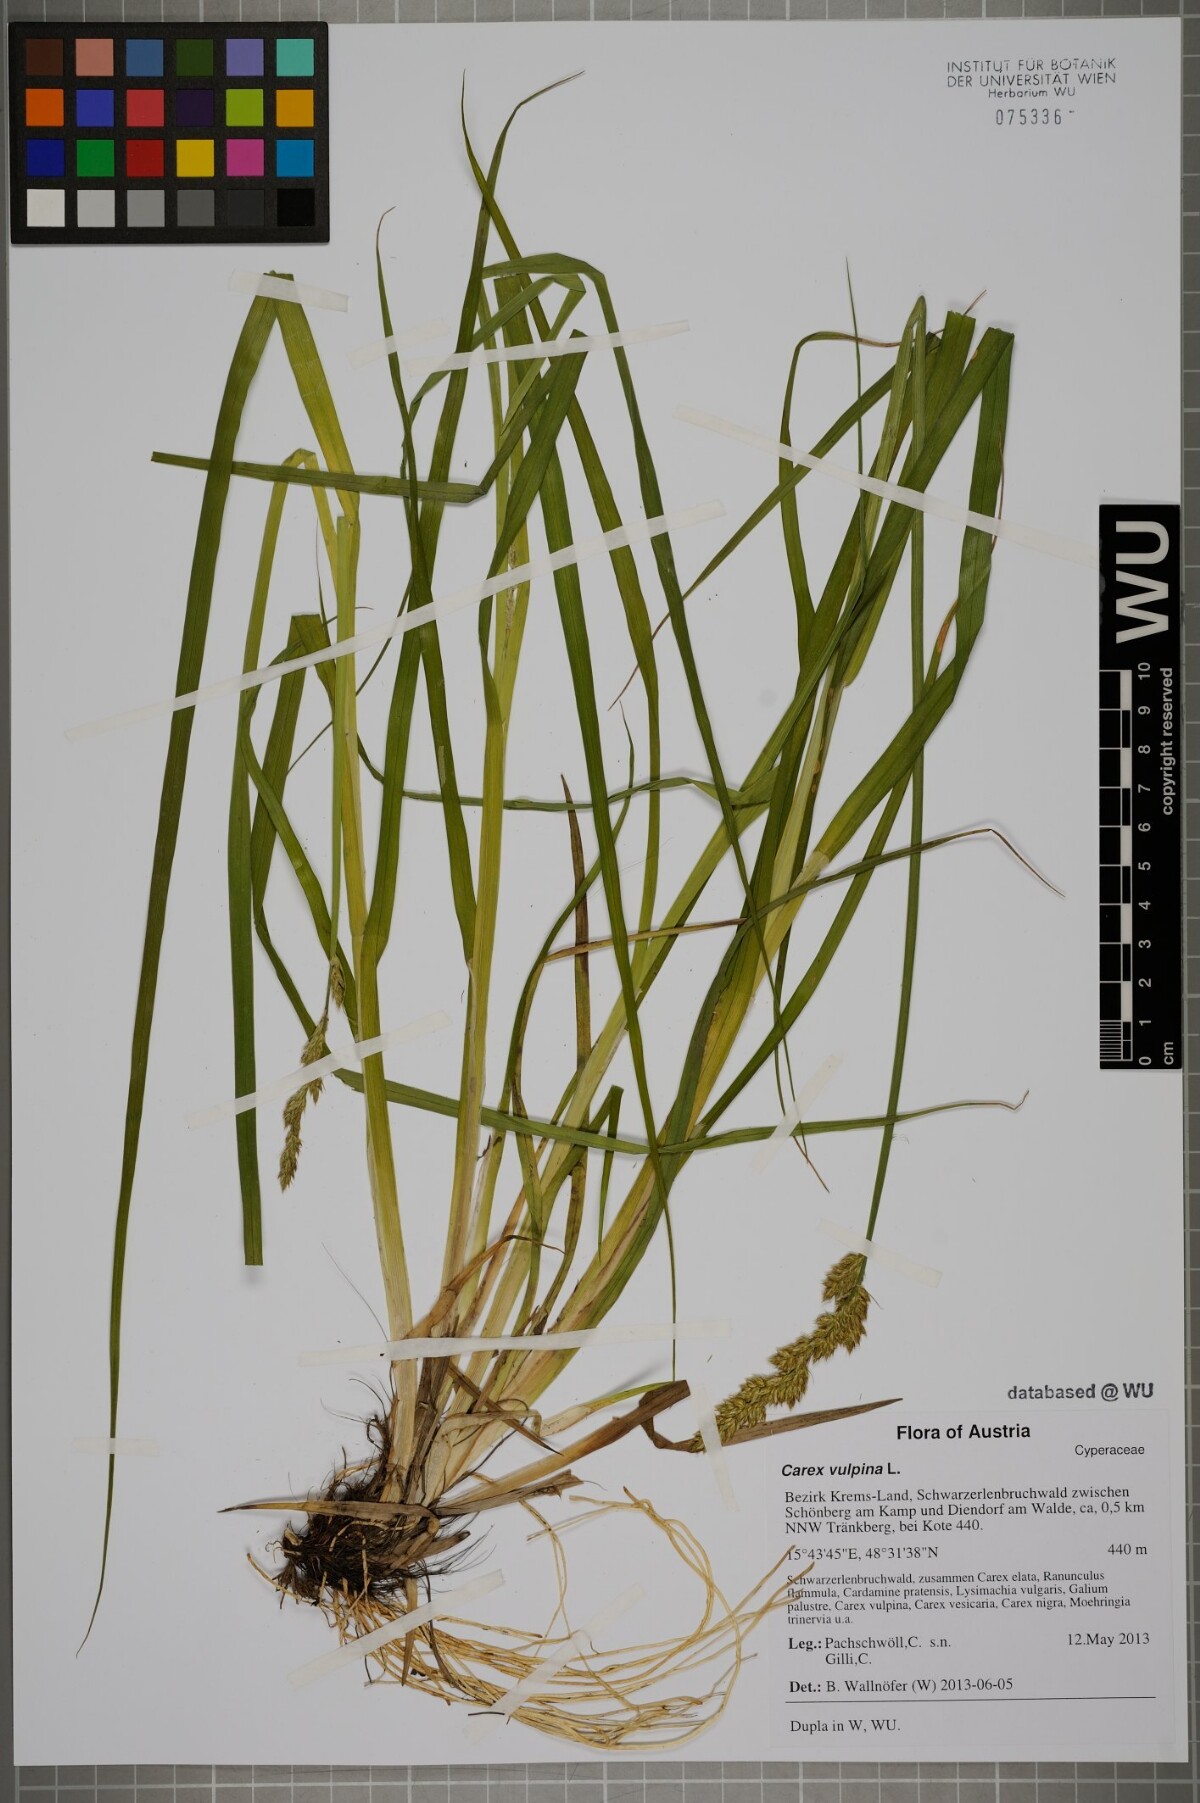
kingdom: Plantae
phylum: Tracheophyta
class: Liliopsida
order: Poales
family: Cyperaceae
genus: Carex
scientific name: Carex vulpina
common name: True fox-sedge
